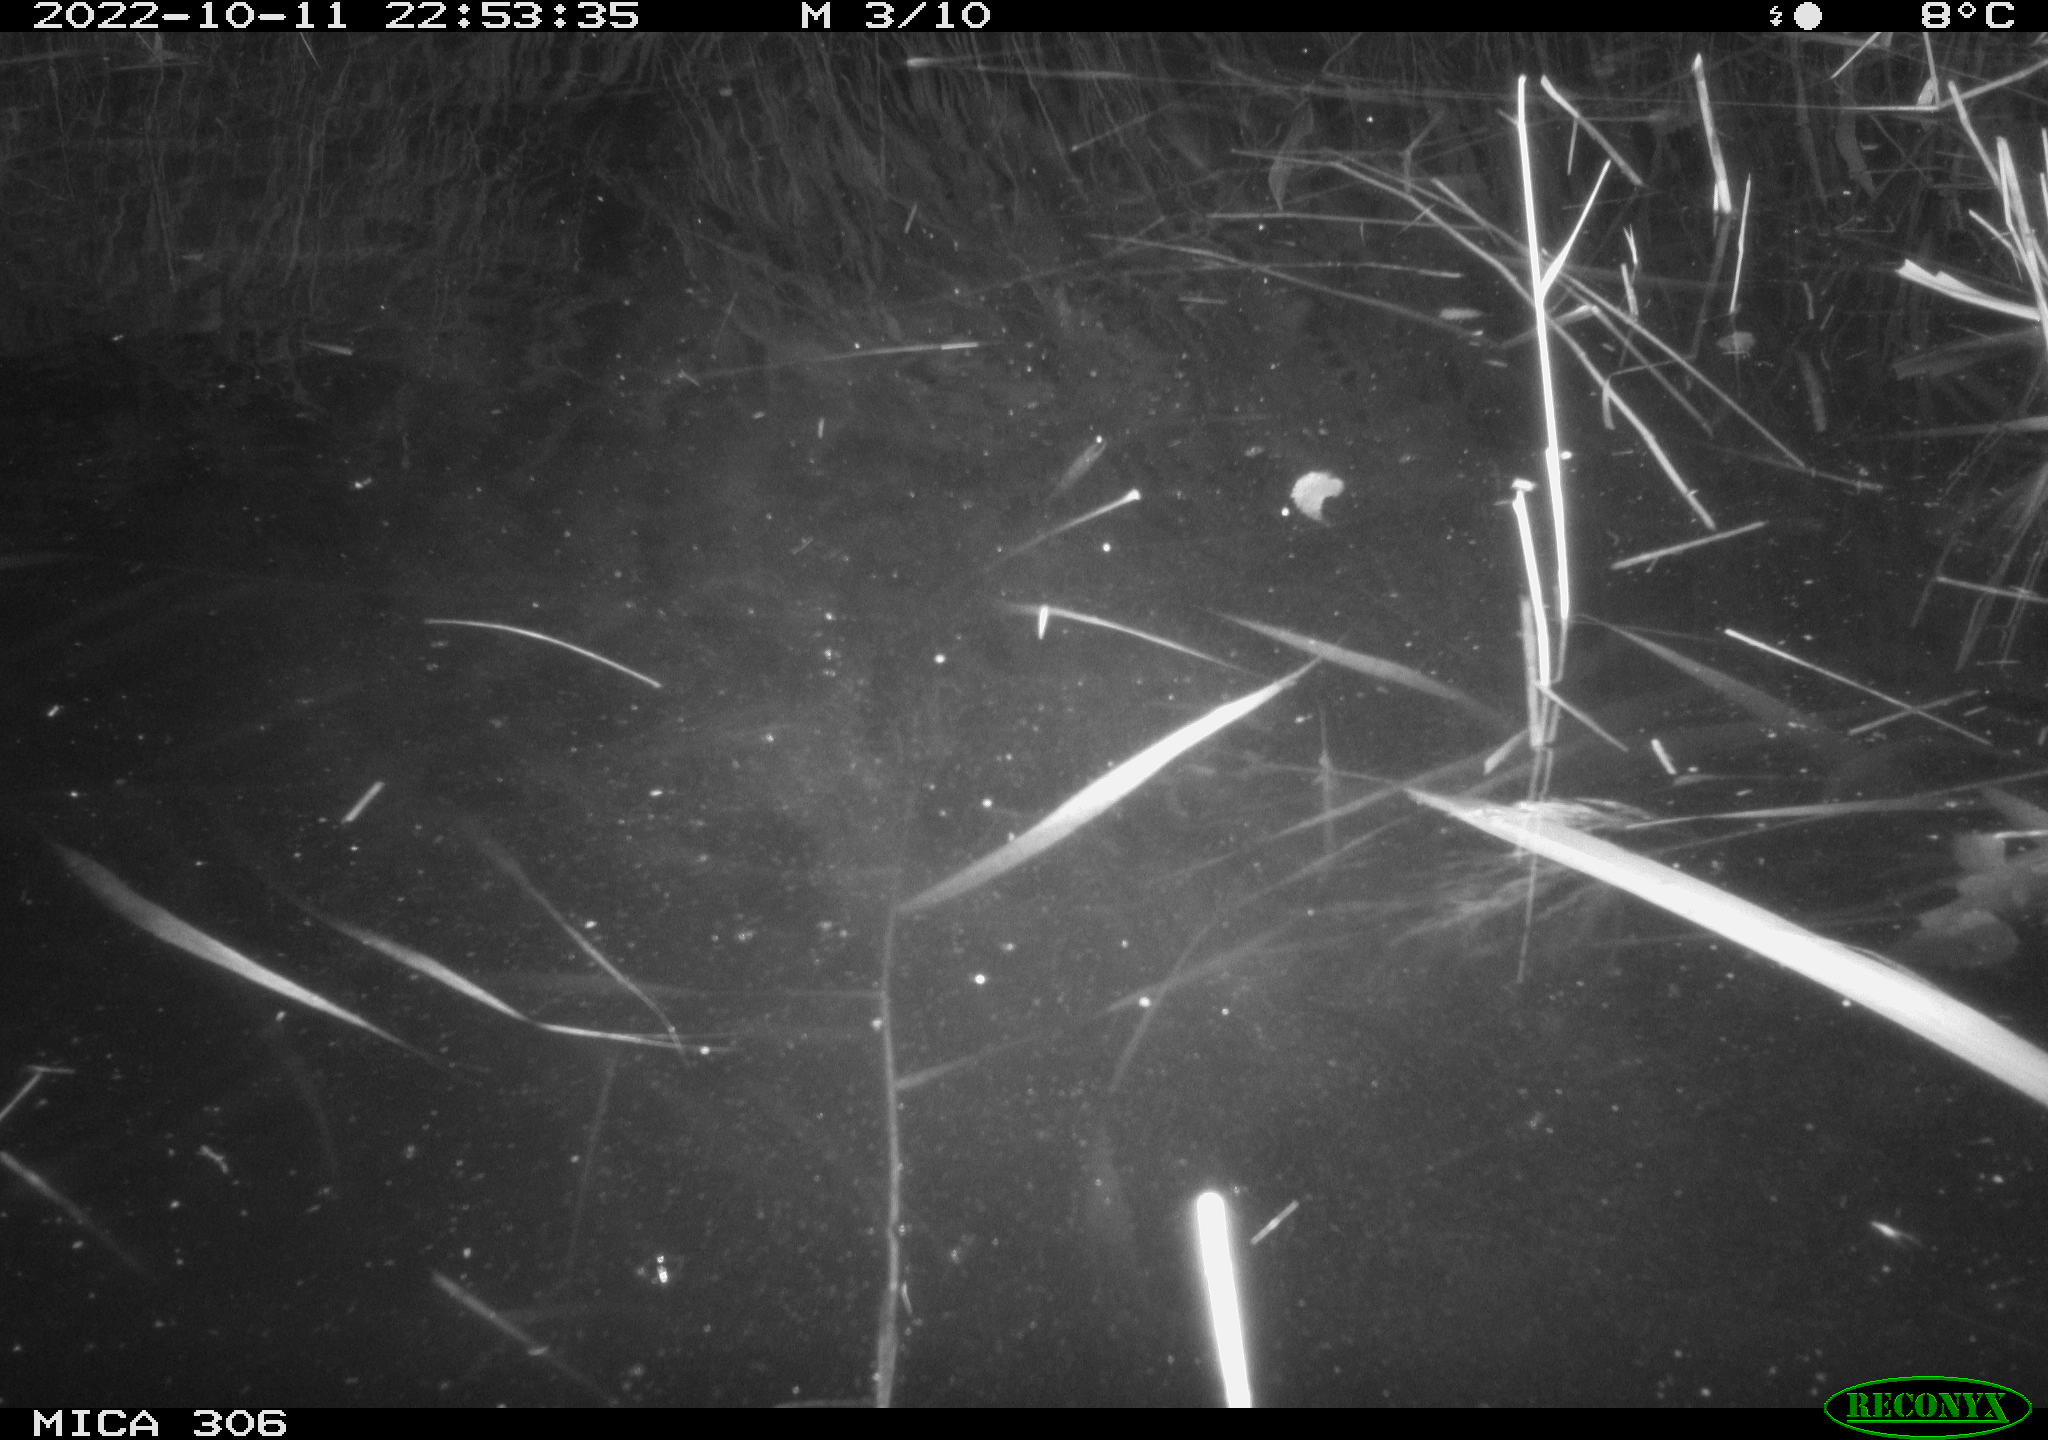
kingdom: Animalia
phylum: Chordata
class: Mammalia
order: Rodentia
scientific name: Rodentia
